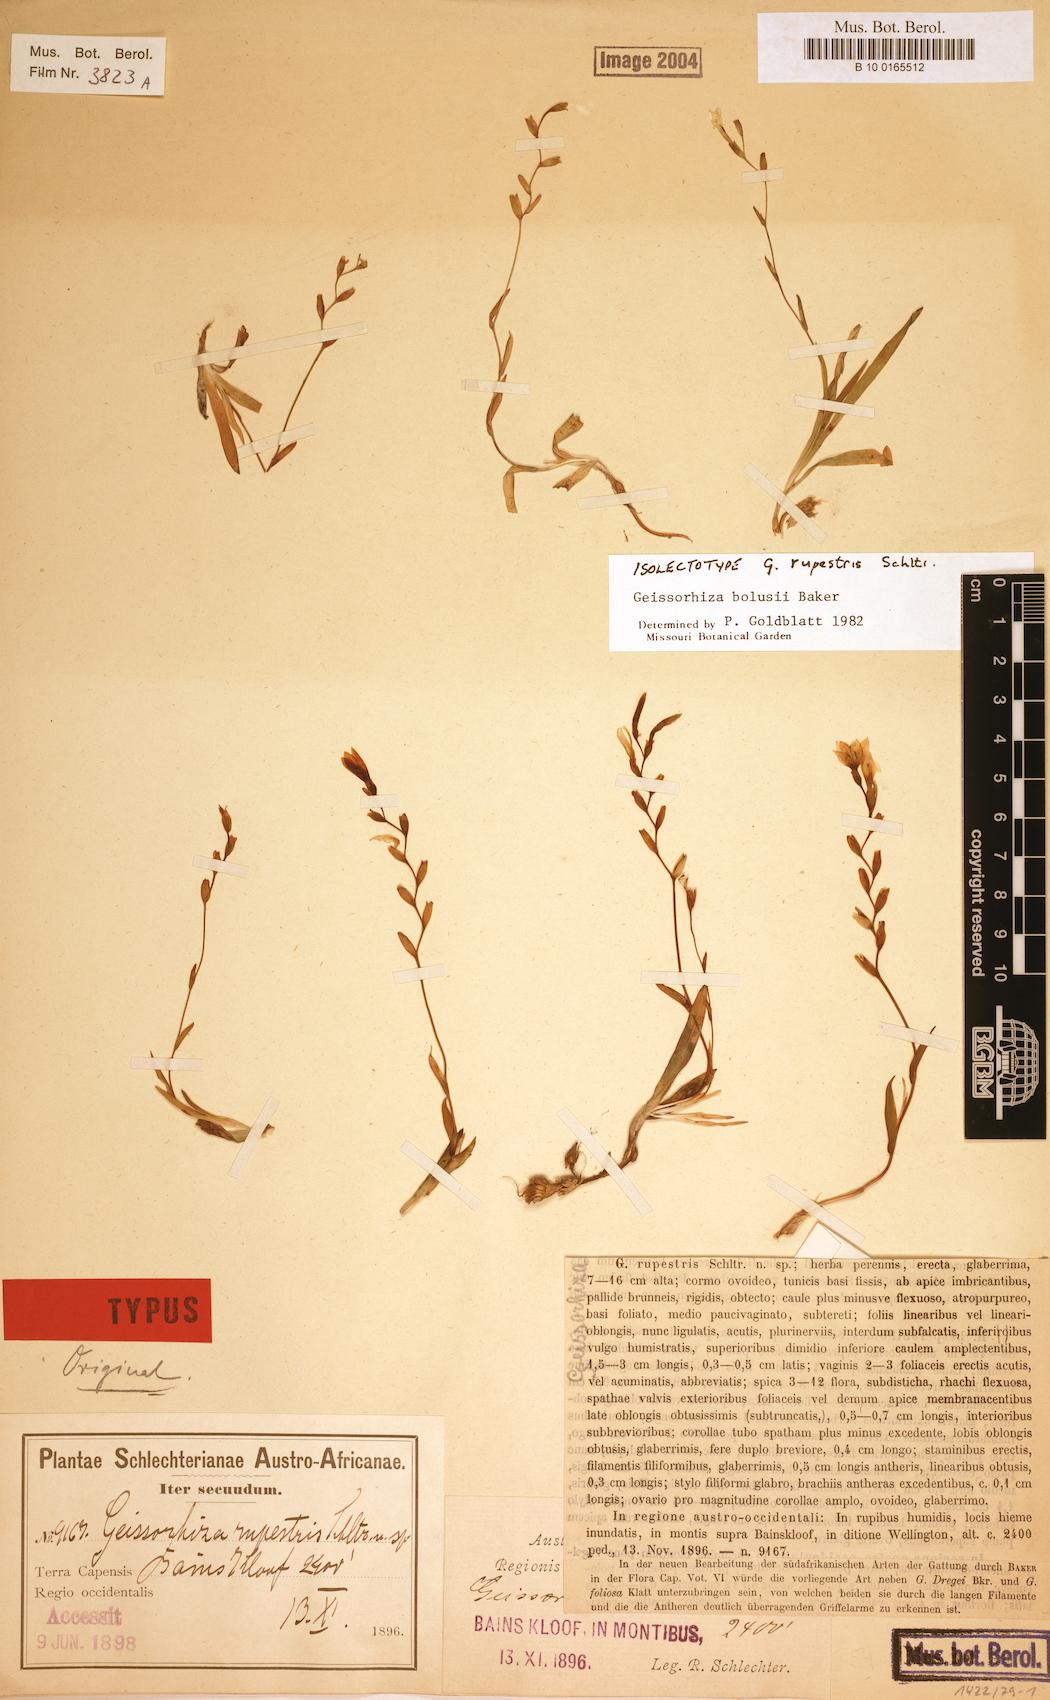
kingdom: Plantae
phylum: Tracheophyta
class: Liliopsida
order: Asparagales
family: Iridaceae
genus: Geissorhiza
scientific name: Geissorhiza bolusii
